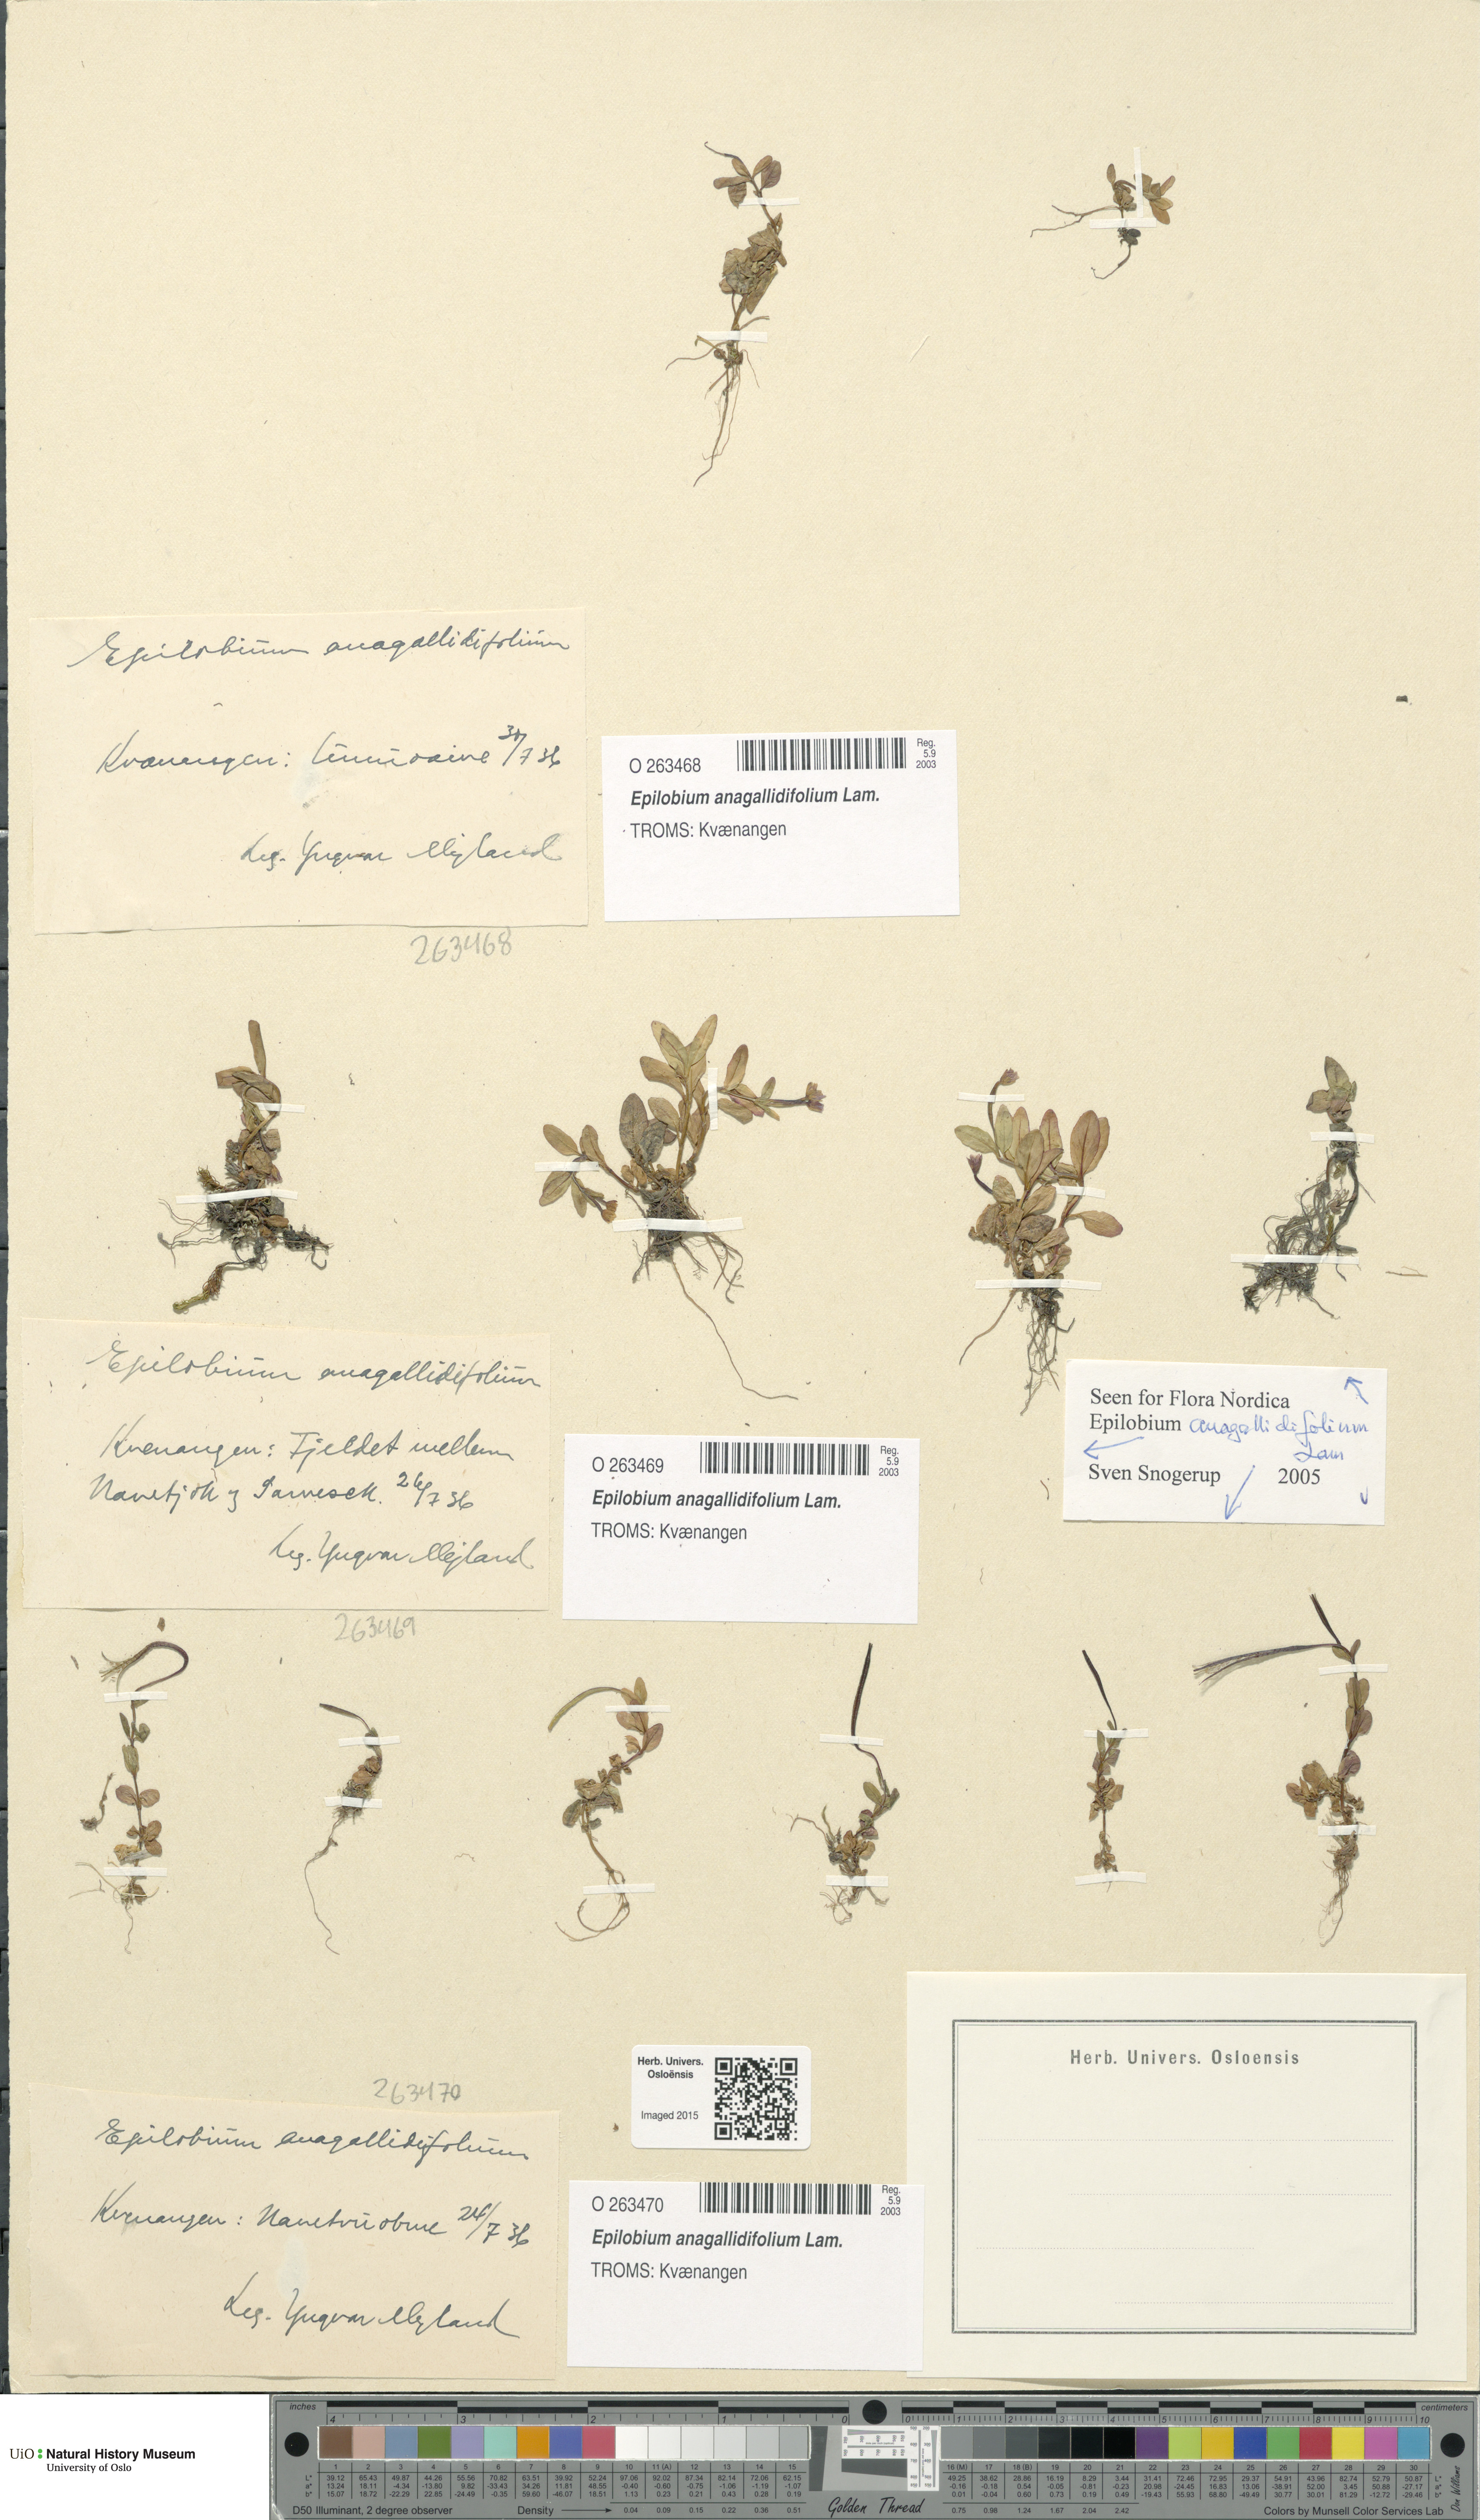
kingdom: Plantae
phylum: Tracheophyta
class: Magnoliopsida
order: Myrtales
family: Onagraceae
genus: Epilobium
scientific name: Epilobium anagallidifolium
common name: Alpine willowherb
